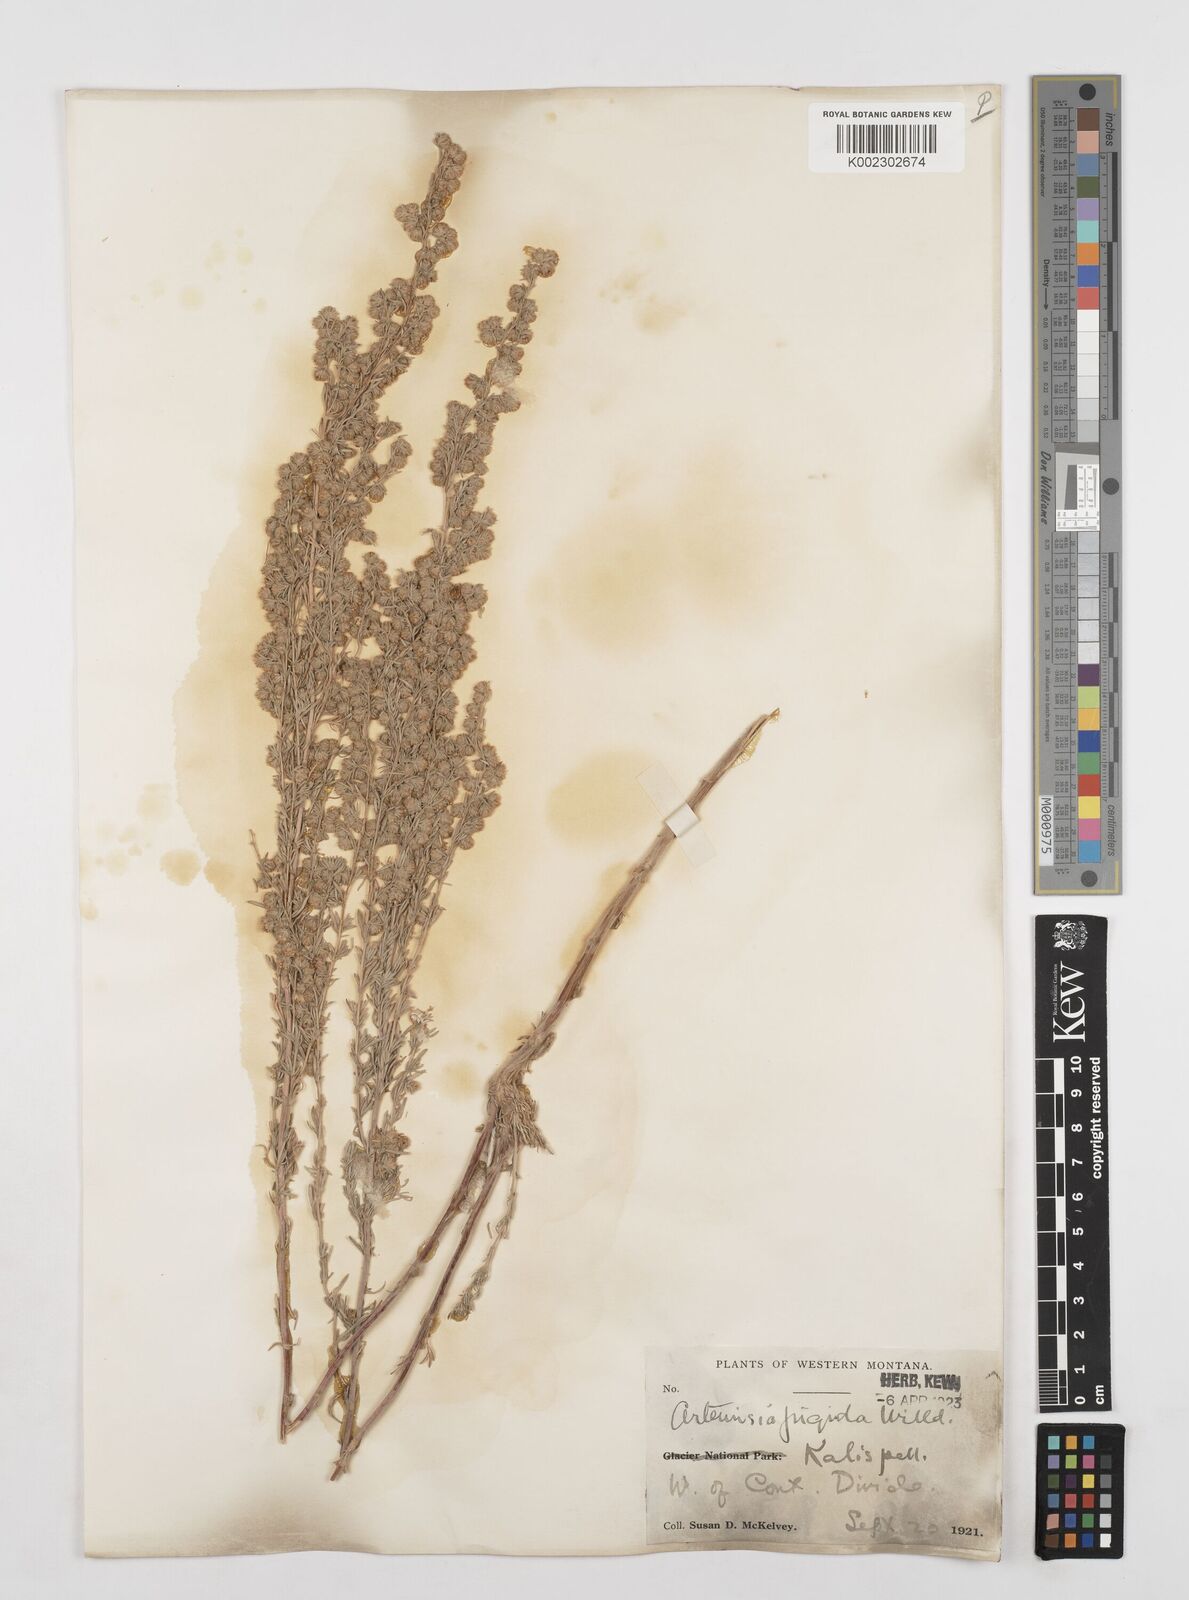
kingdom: Plantae
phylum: Tracheophyta
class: Magnoliopsida
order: Asterales
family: Asteraceae
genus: Artemisia
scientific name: Artemisia frigida
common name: Prairie sagewort
